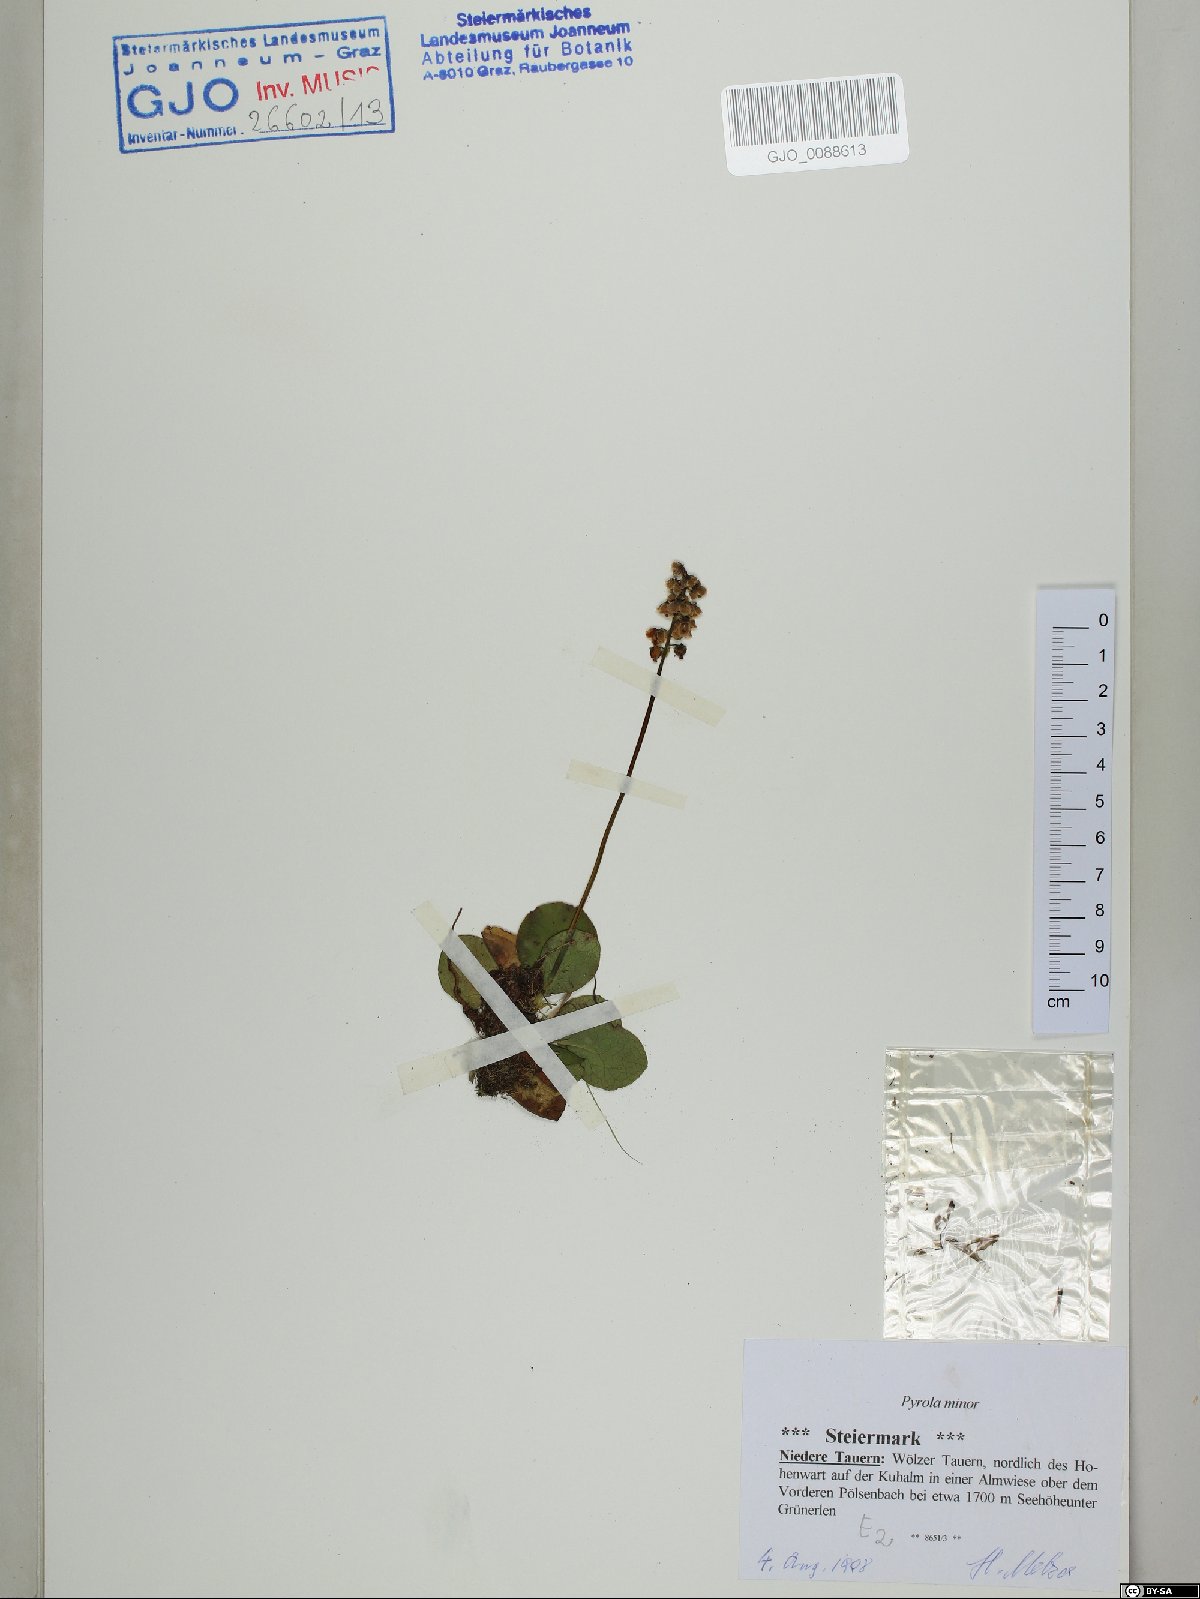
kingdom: Plantae
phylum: Tracheophyta
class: Magnoliopsida
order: Ericales
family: Ericaceae
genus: Pyrola
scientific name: Pyrola minor
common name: Common wintergreen
